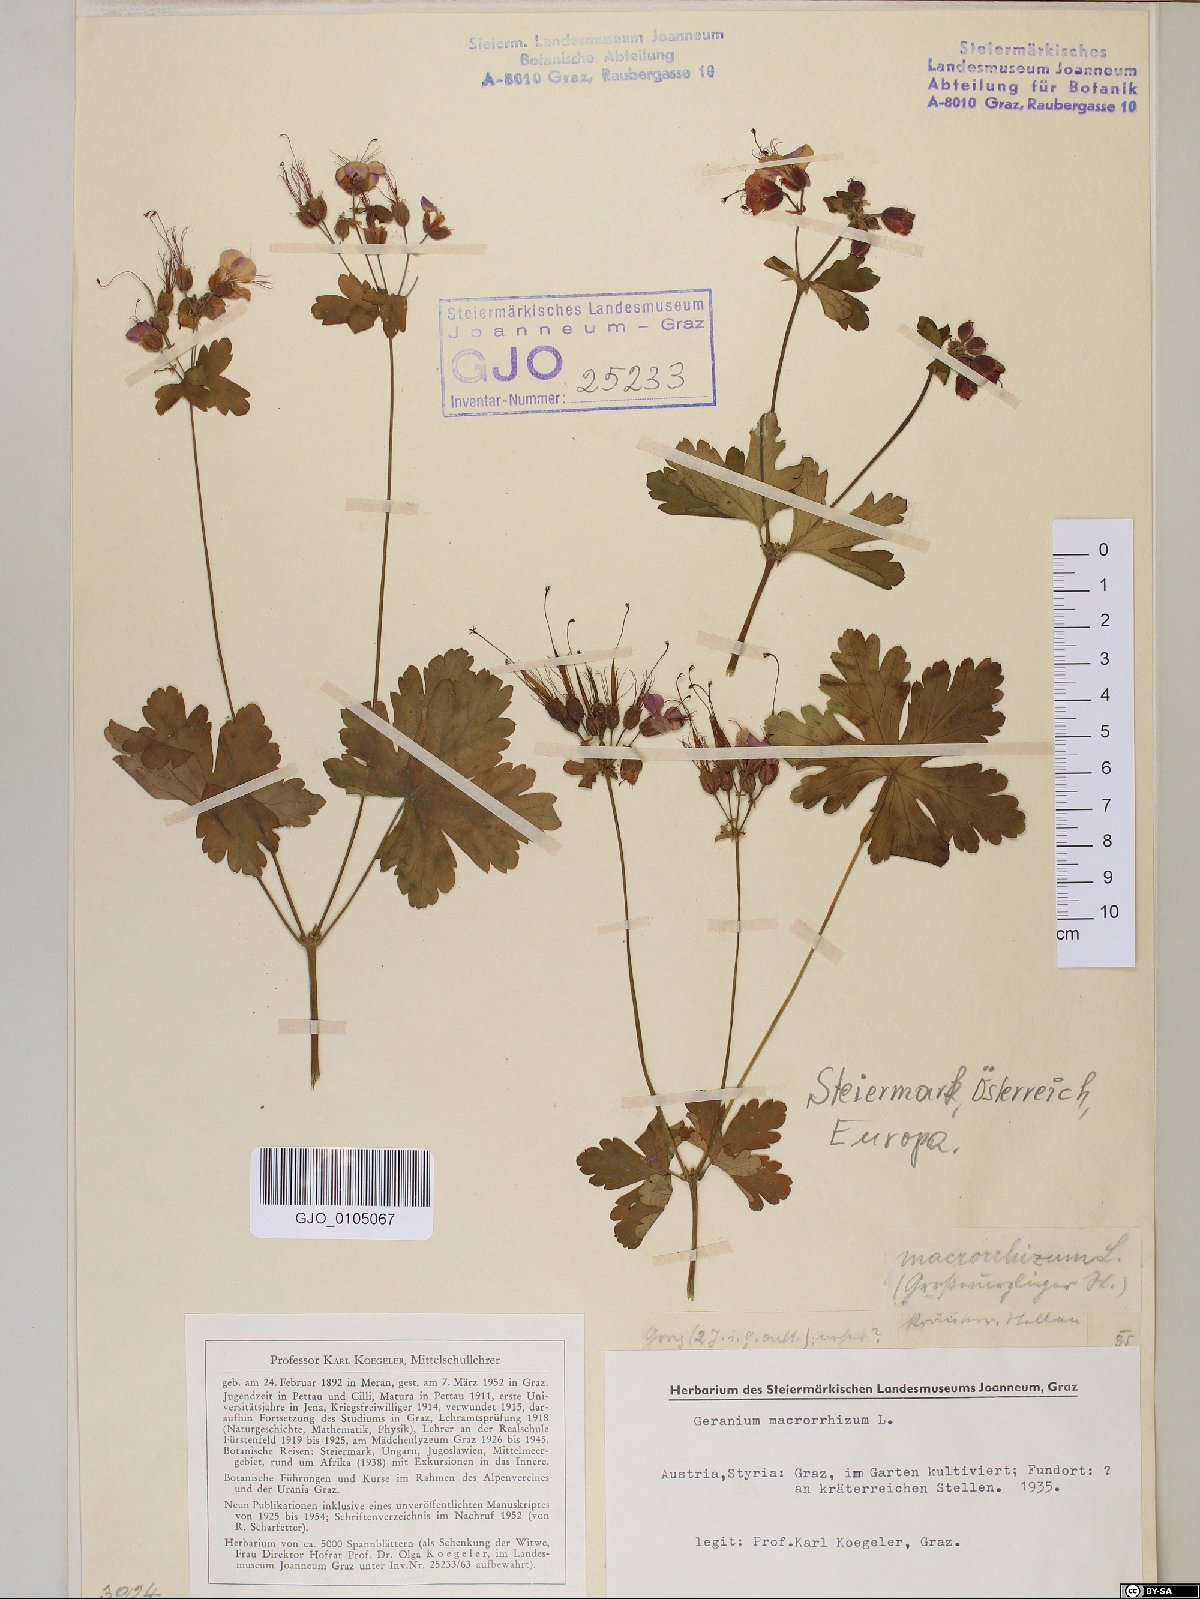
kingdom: Plantae
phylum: Tracheophyta
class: Magnoliopsida
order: Geraniales
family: Geraniaceae
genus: Geranium
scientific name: Geranium macrorrhizum
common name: Rock crane's-bill
